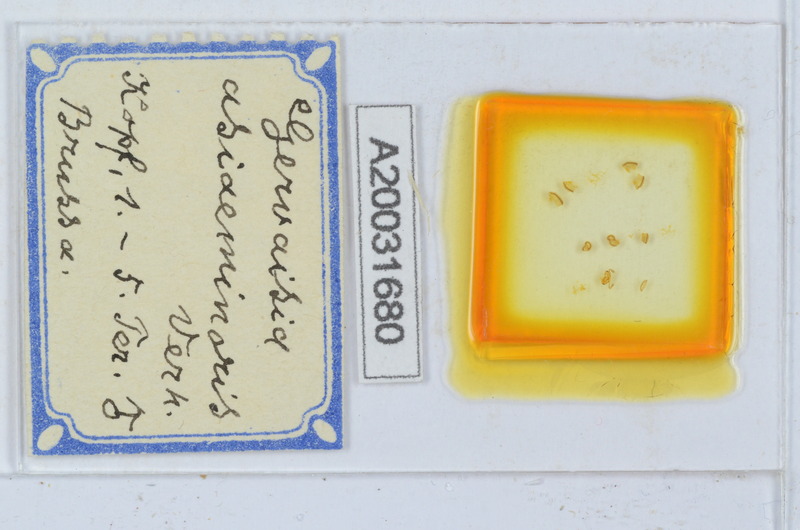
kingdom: Animalia
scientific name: Animalia
